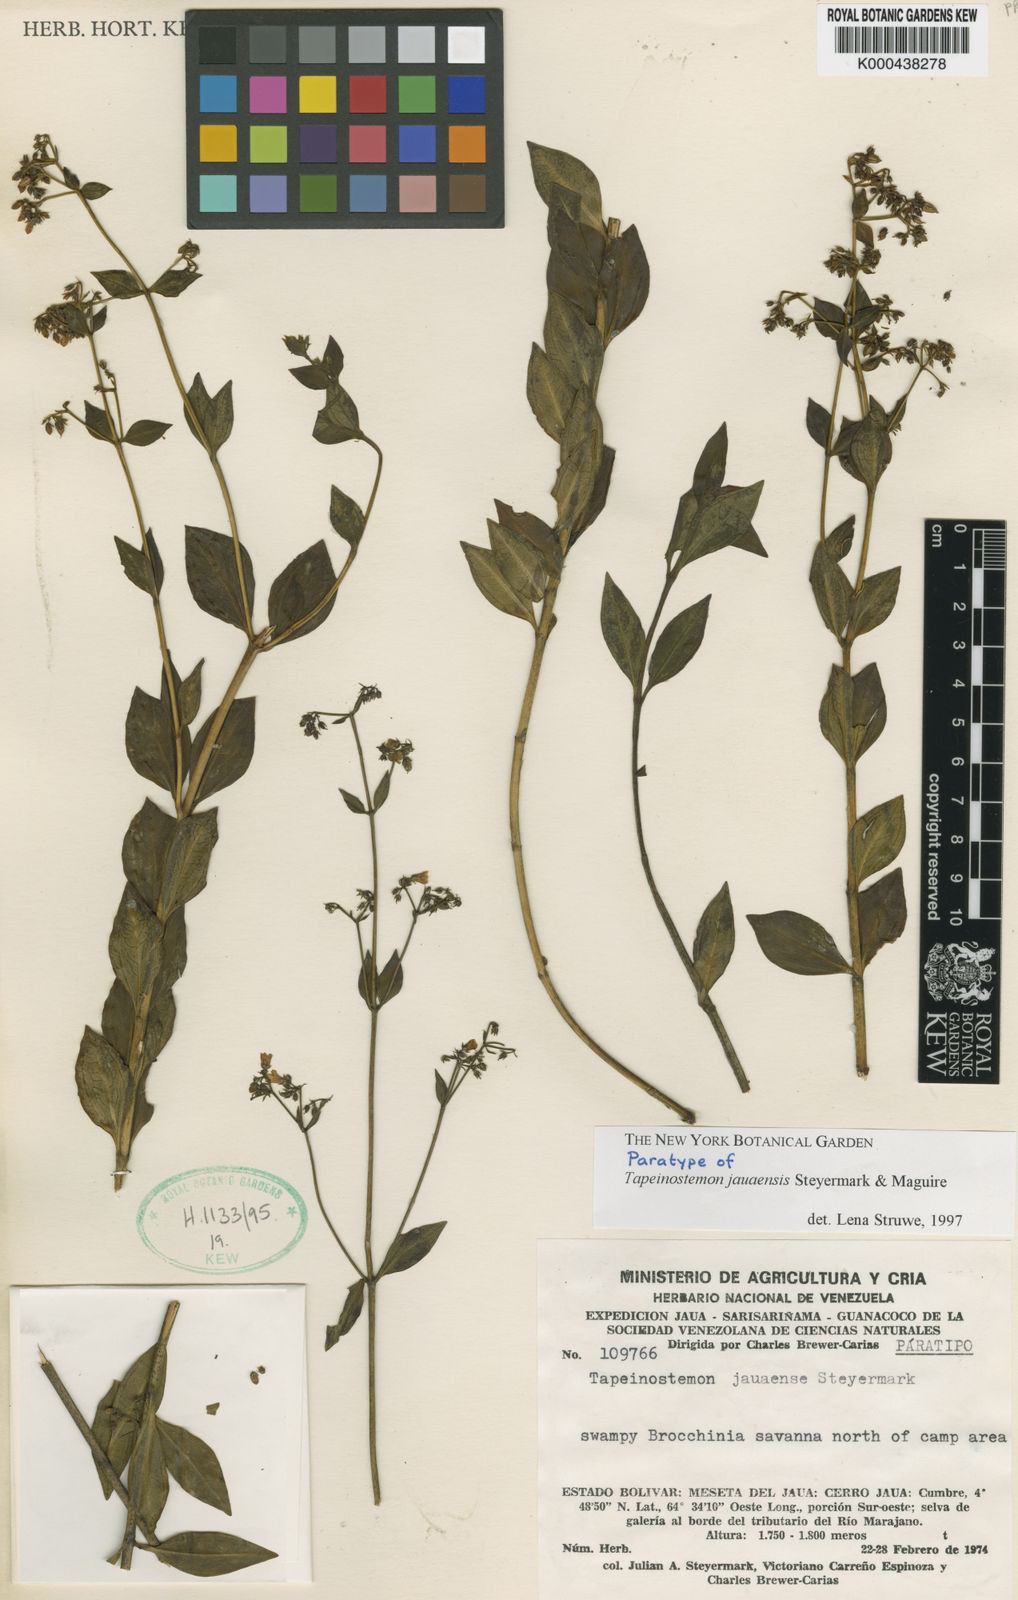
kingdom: Plantae
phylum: Tracheophyta
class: Magnoliopsida
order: Gentianales
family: Gentianaceae
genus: Tapeinostemon
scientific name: Tapeinostemon jauaensis
